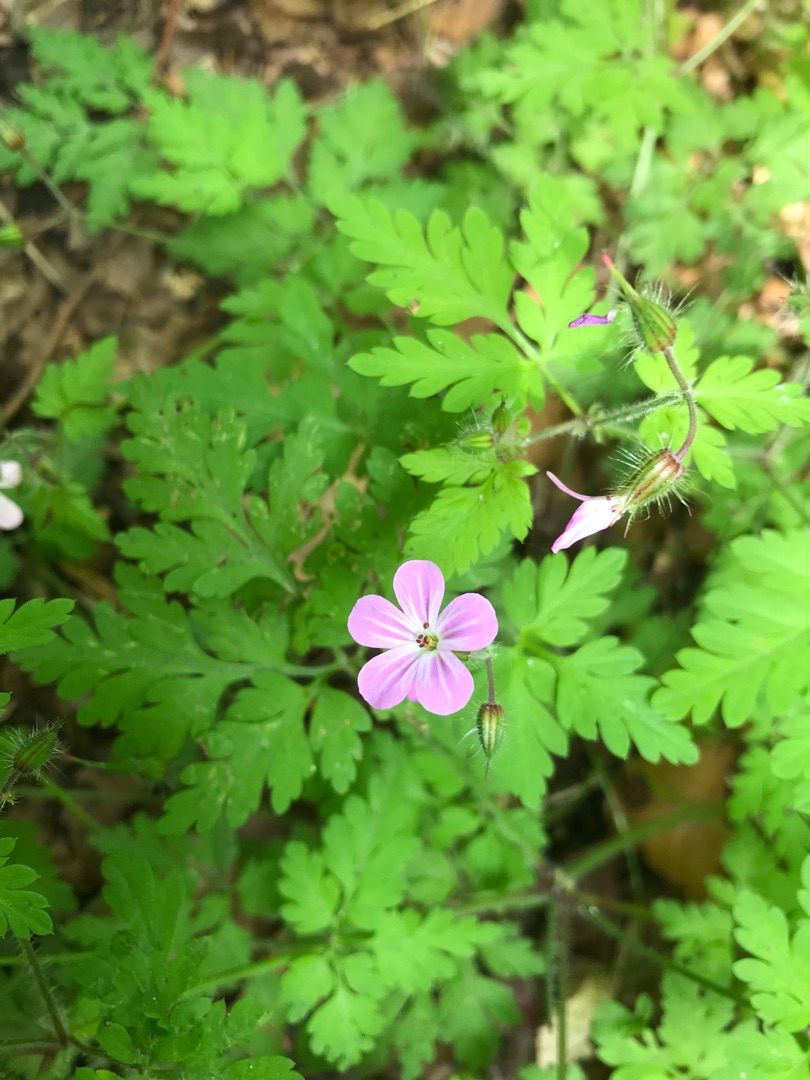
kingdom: Plantae
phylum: Tracheophyta
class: Magnoliopsida
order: Geraniales
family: Geraniaceae
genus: Geranium
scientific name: Geranium robertianum
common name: Stinkende storkenæb
